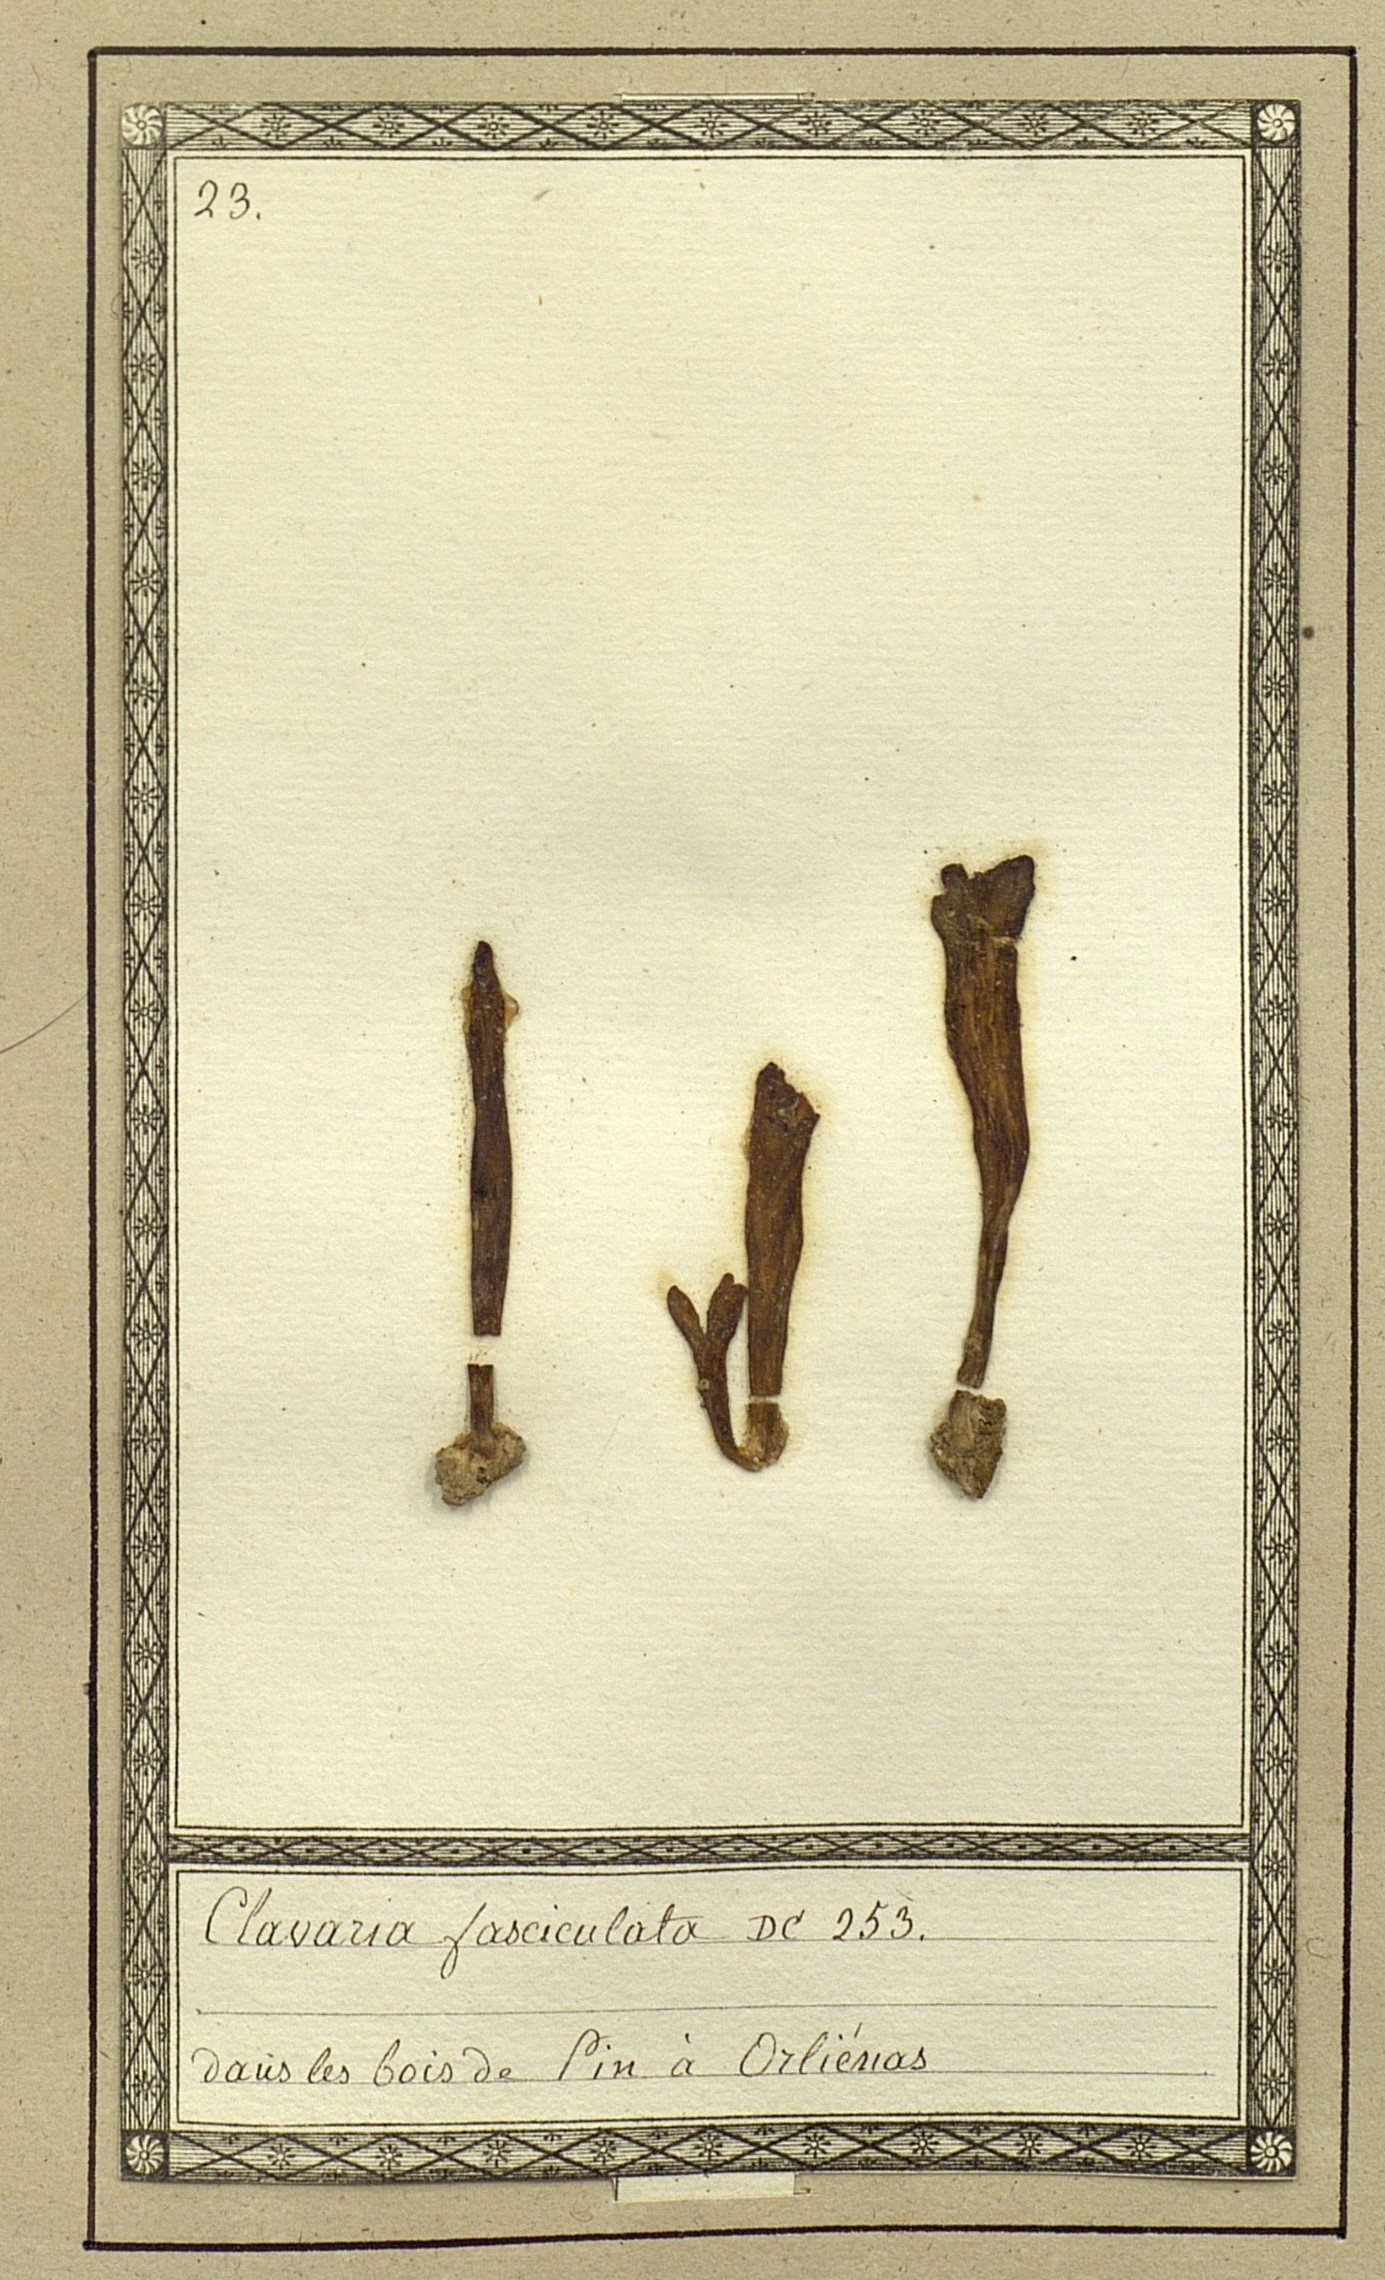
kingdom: Fungi
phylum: Basidiomycota
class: Agaricomycetes
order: Agaricales
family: Clavariaceae
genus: Clavulinopsis
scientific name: Clavulinopsis fusiformis
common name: Golden spindles
